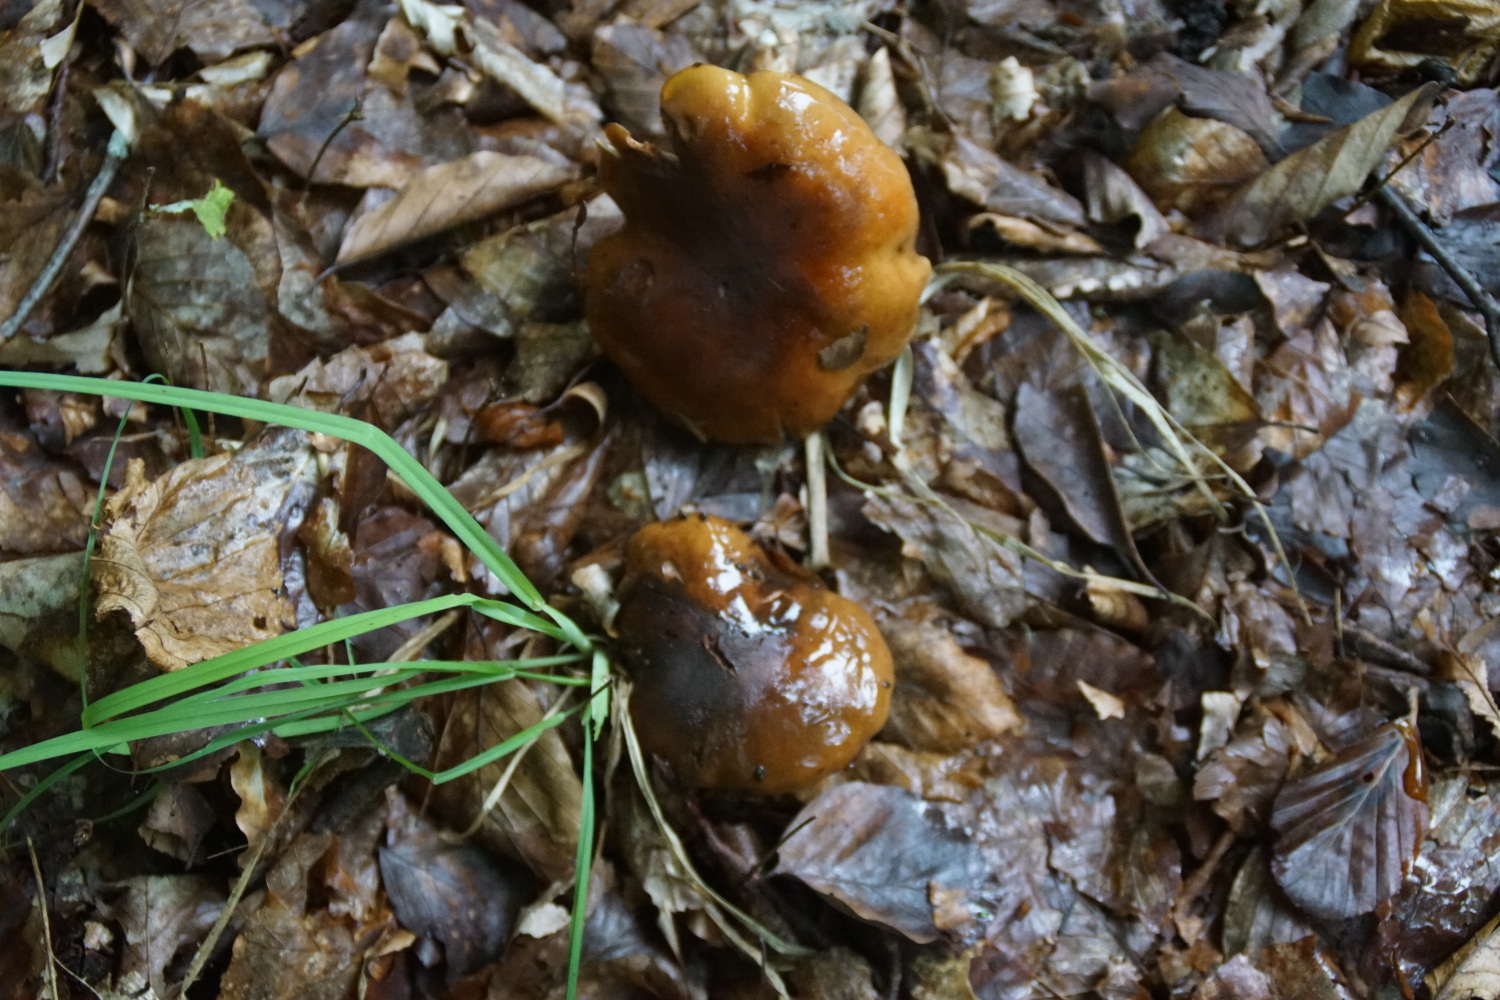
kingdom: Fungi
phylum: Basidiomycota
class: Agaricomycetes
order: Agaricales
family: Tricholomataceae
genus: Tricholoma
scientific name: Tricholoma ustale
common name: sveden ridderhat
